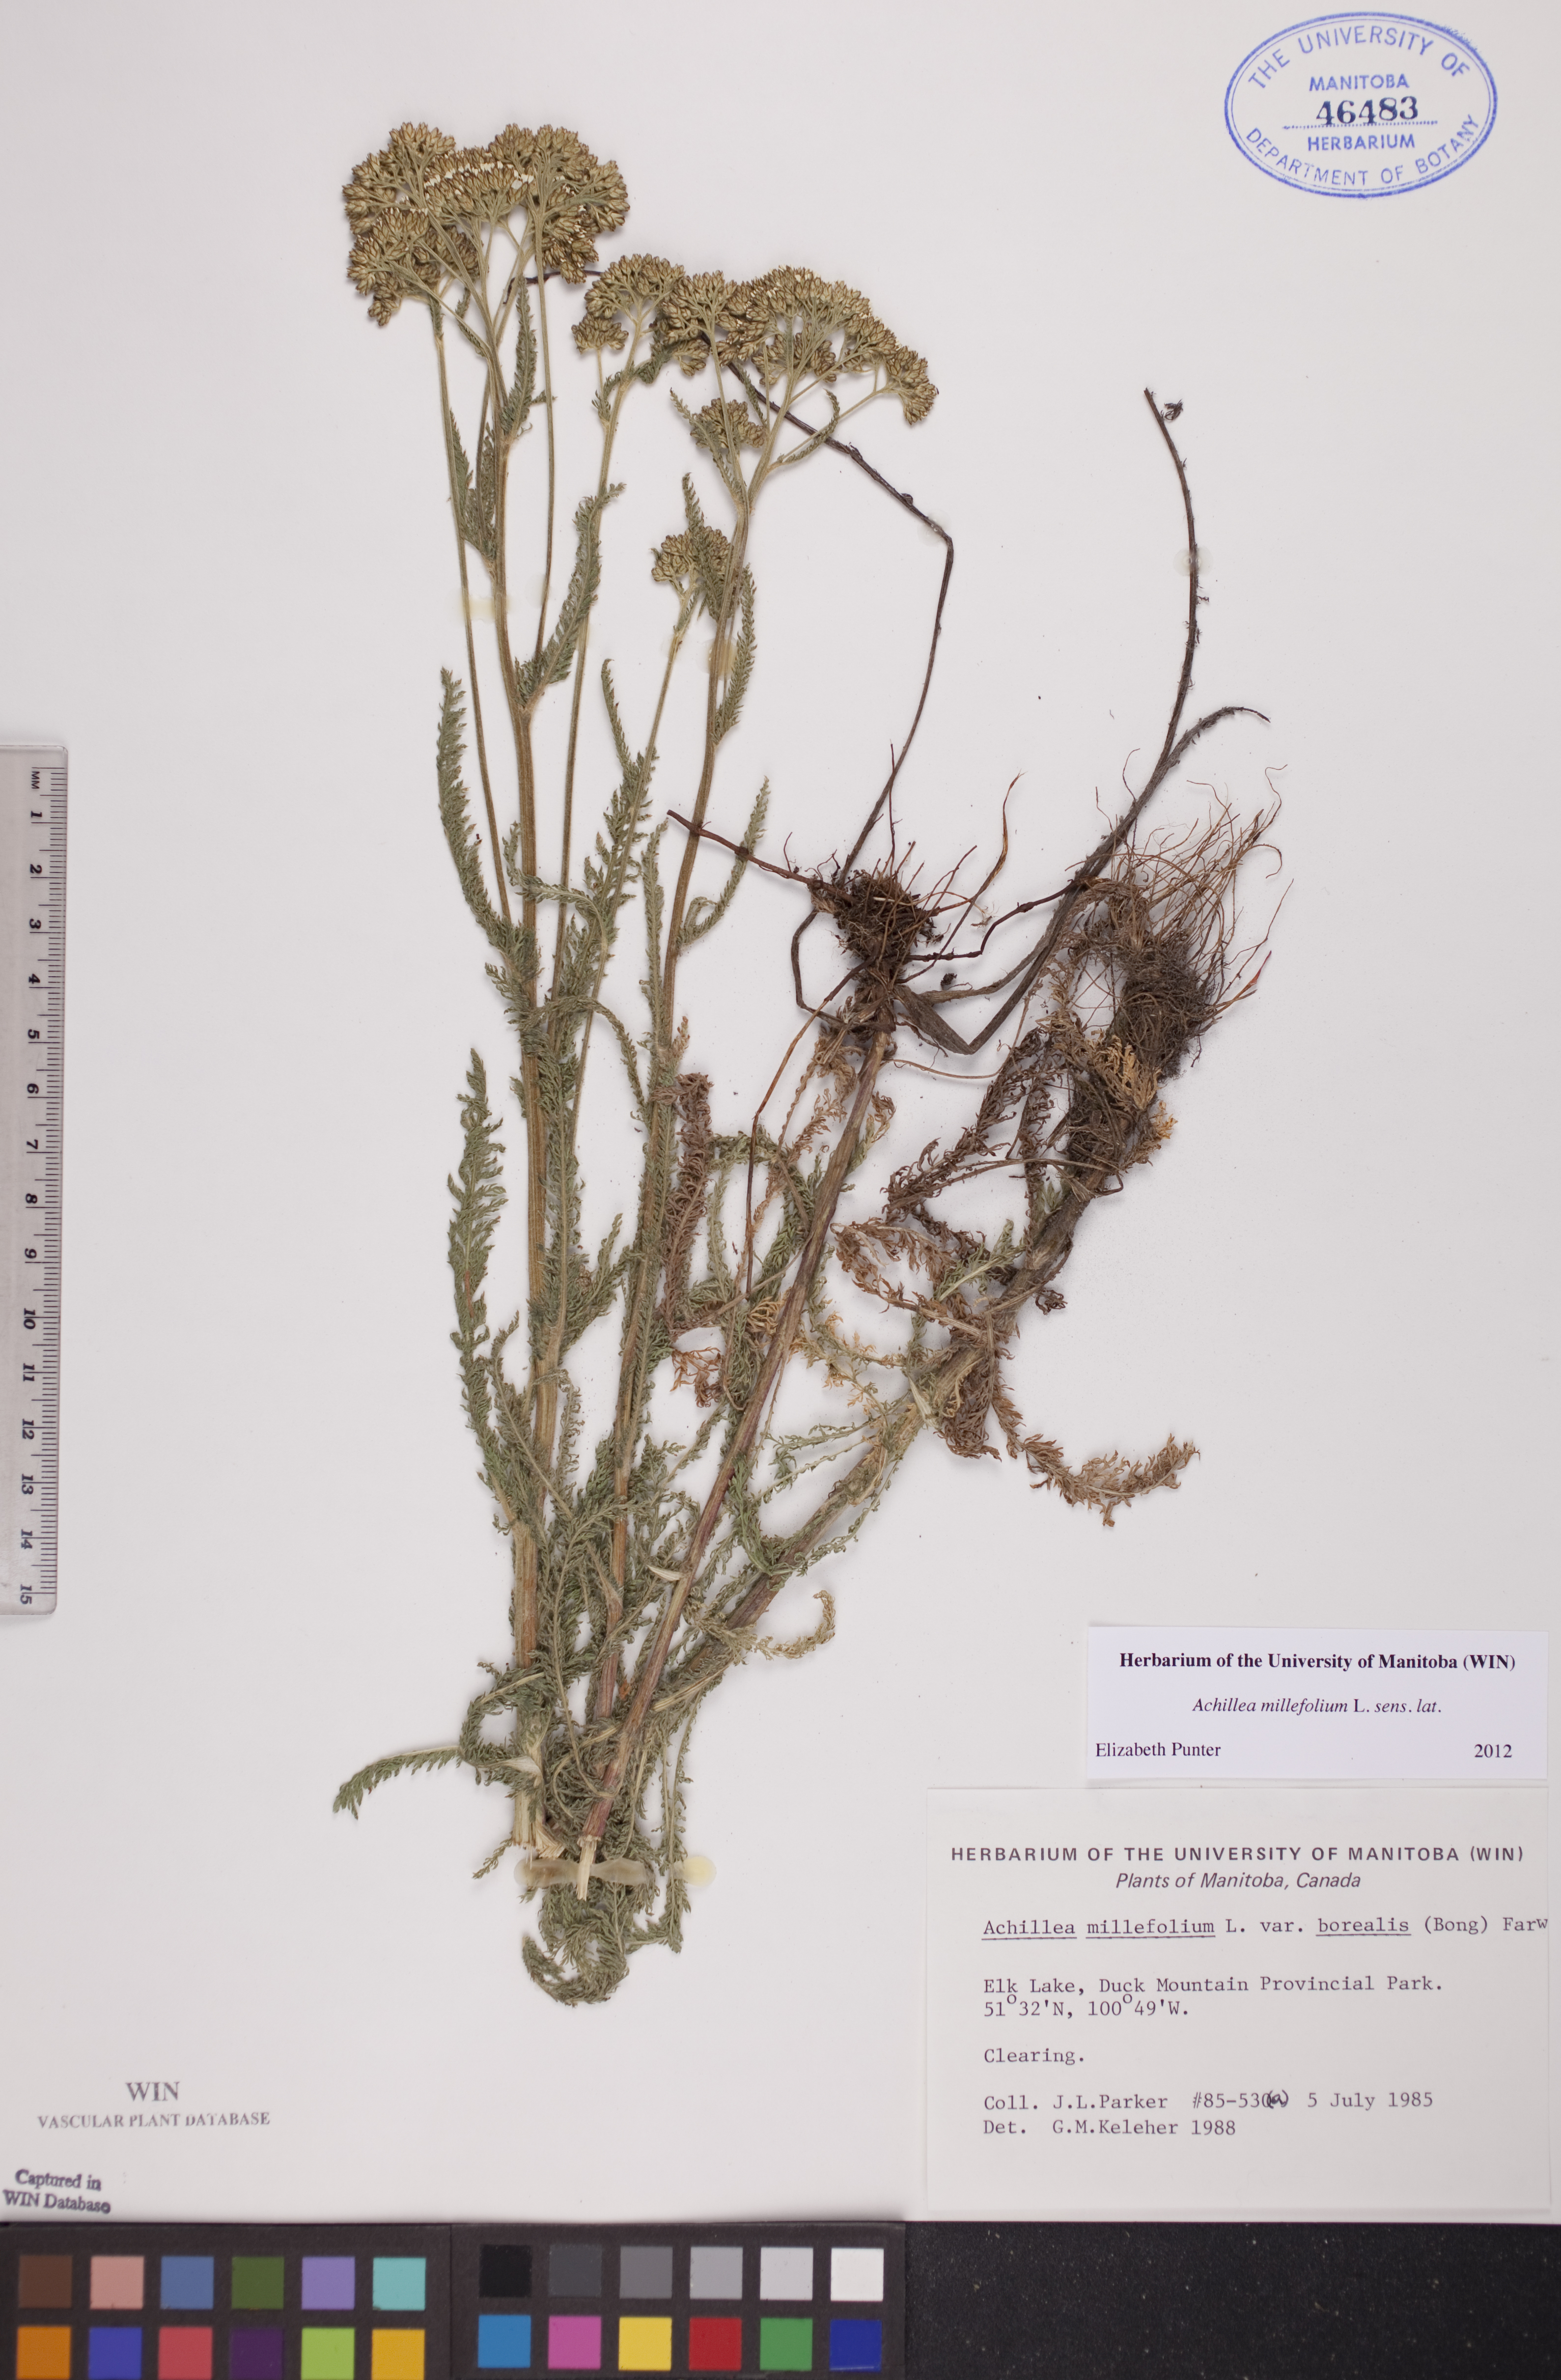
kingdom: Plantae
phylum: Tracheophyta
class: Magnoliopsida
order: Asterales
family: Asteraceae
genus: Achillea
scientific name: Achillea millefolium
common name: Yarrow
